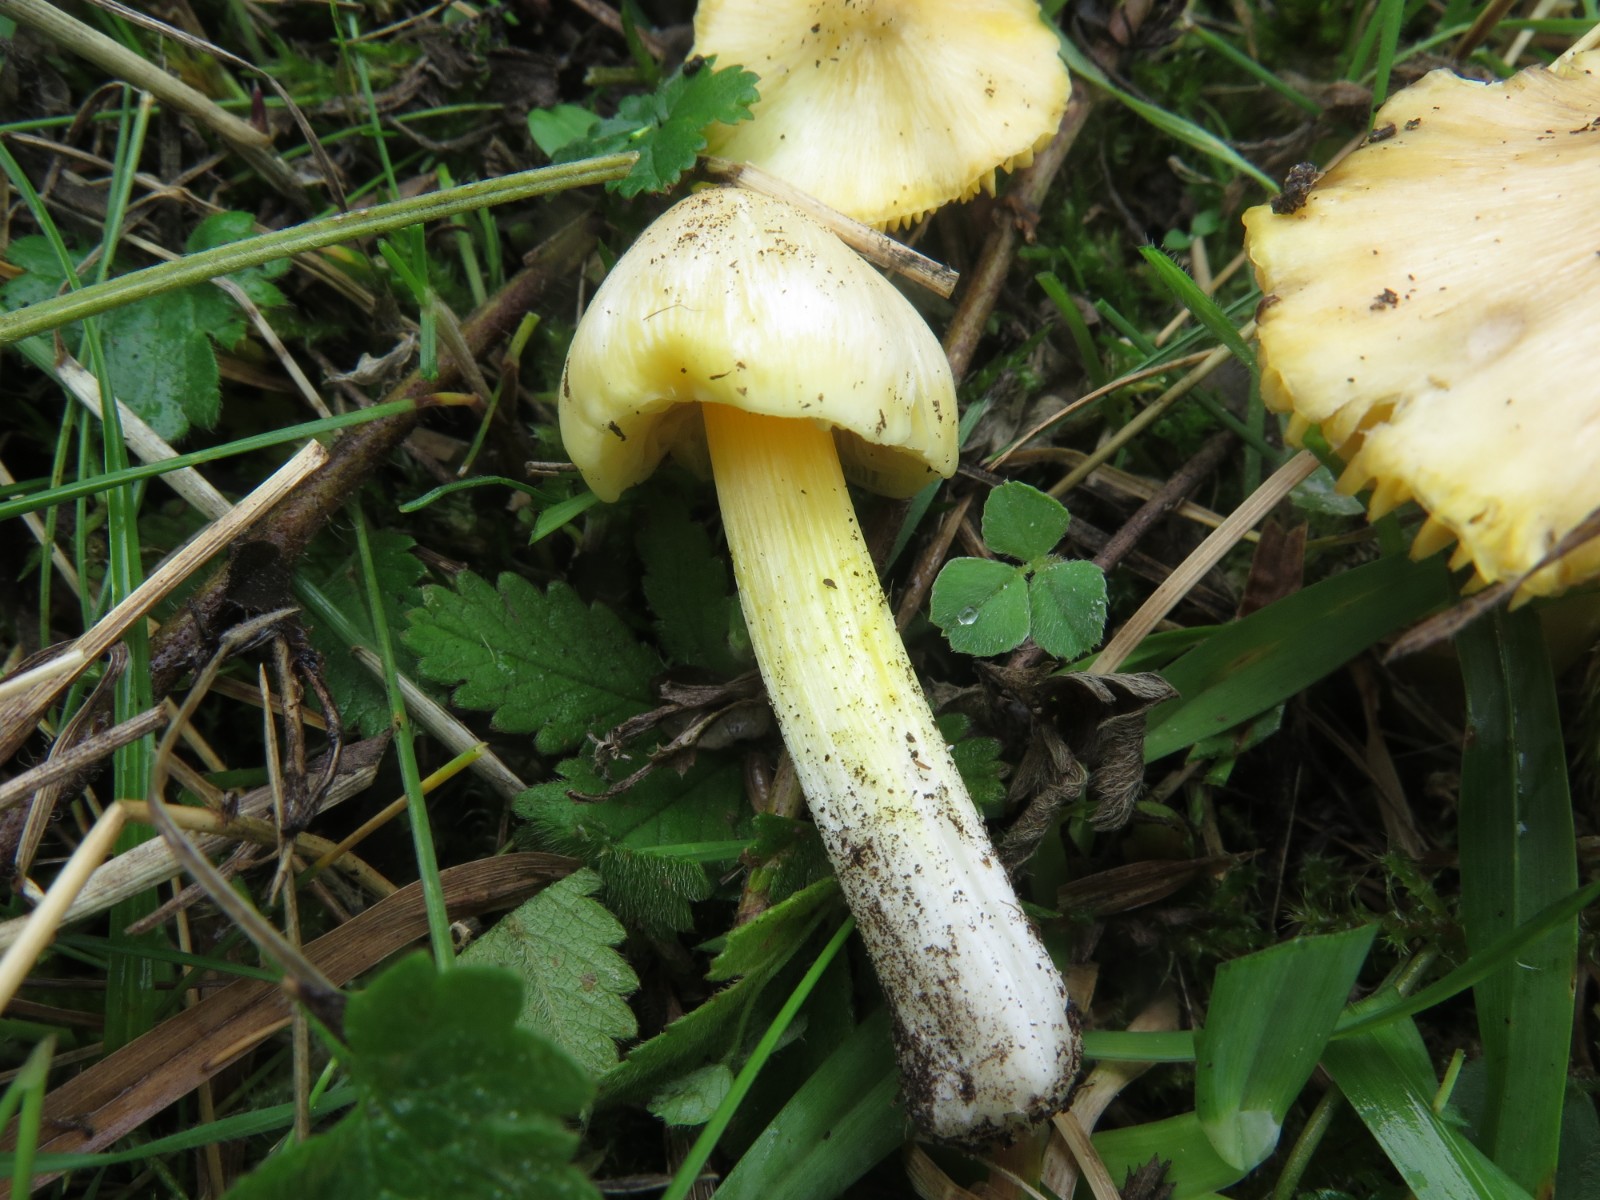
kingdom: Fungi
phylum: Basidiomycota
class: Agaricomycetes
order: Agaricales
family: Hygrophoraceae
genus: Hygrocybe
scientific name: Hygrocybe
